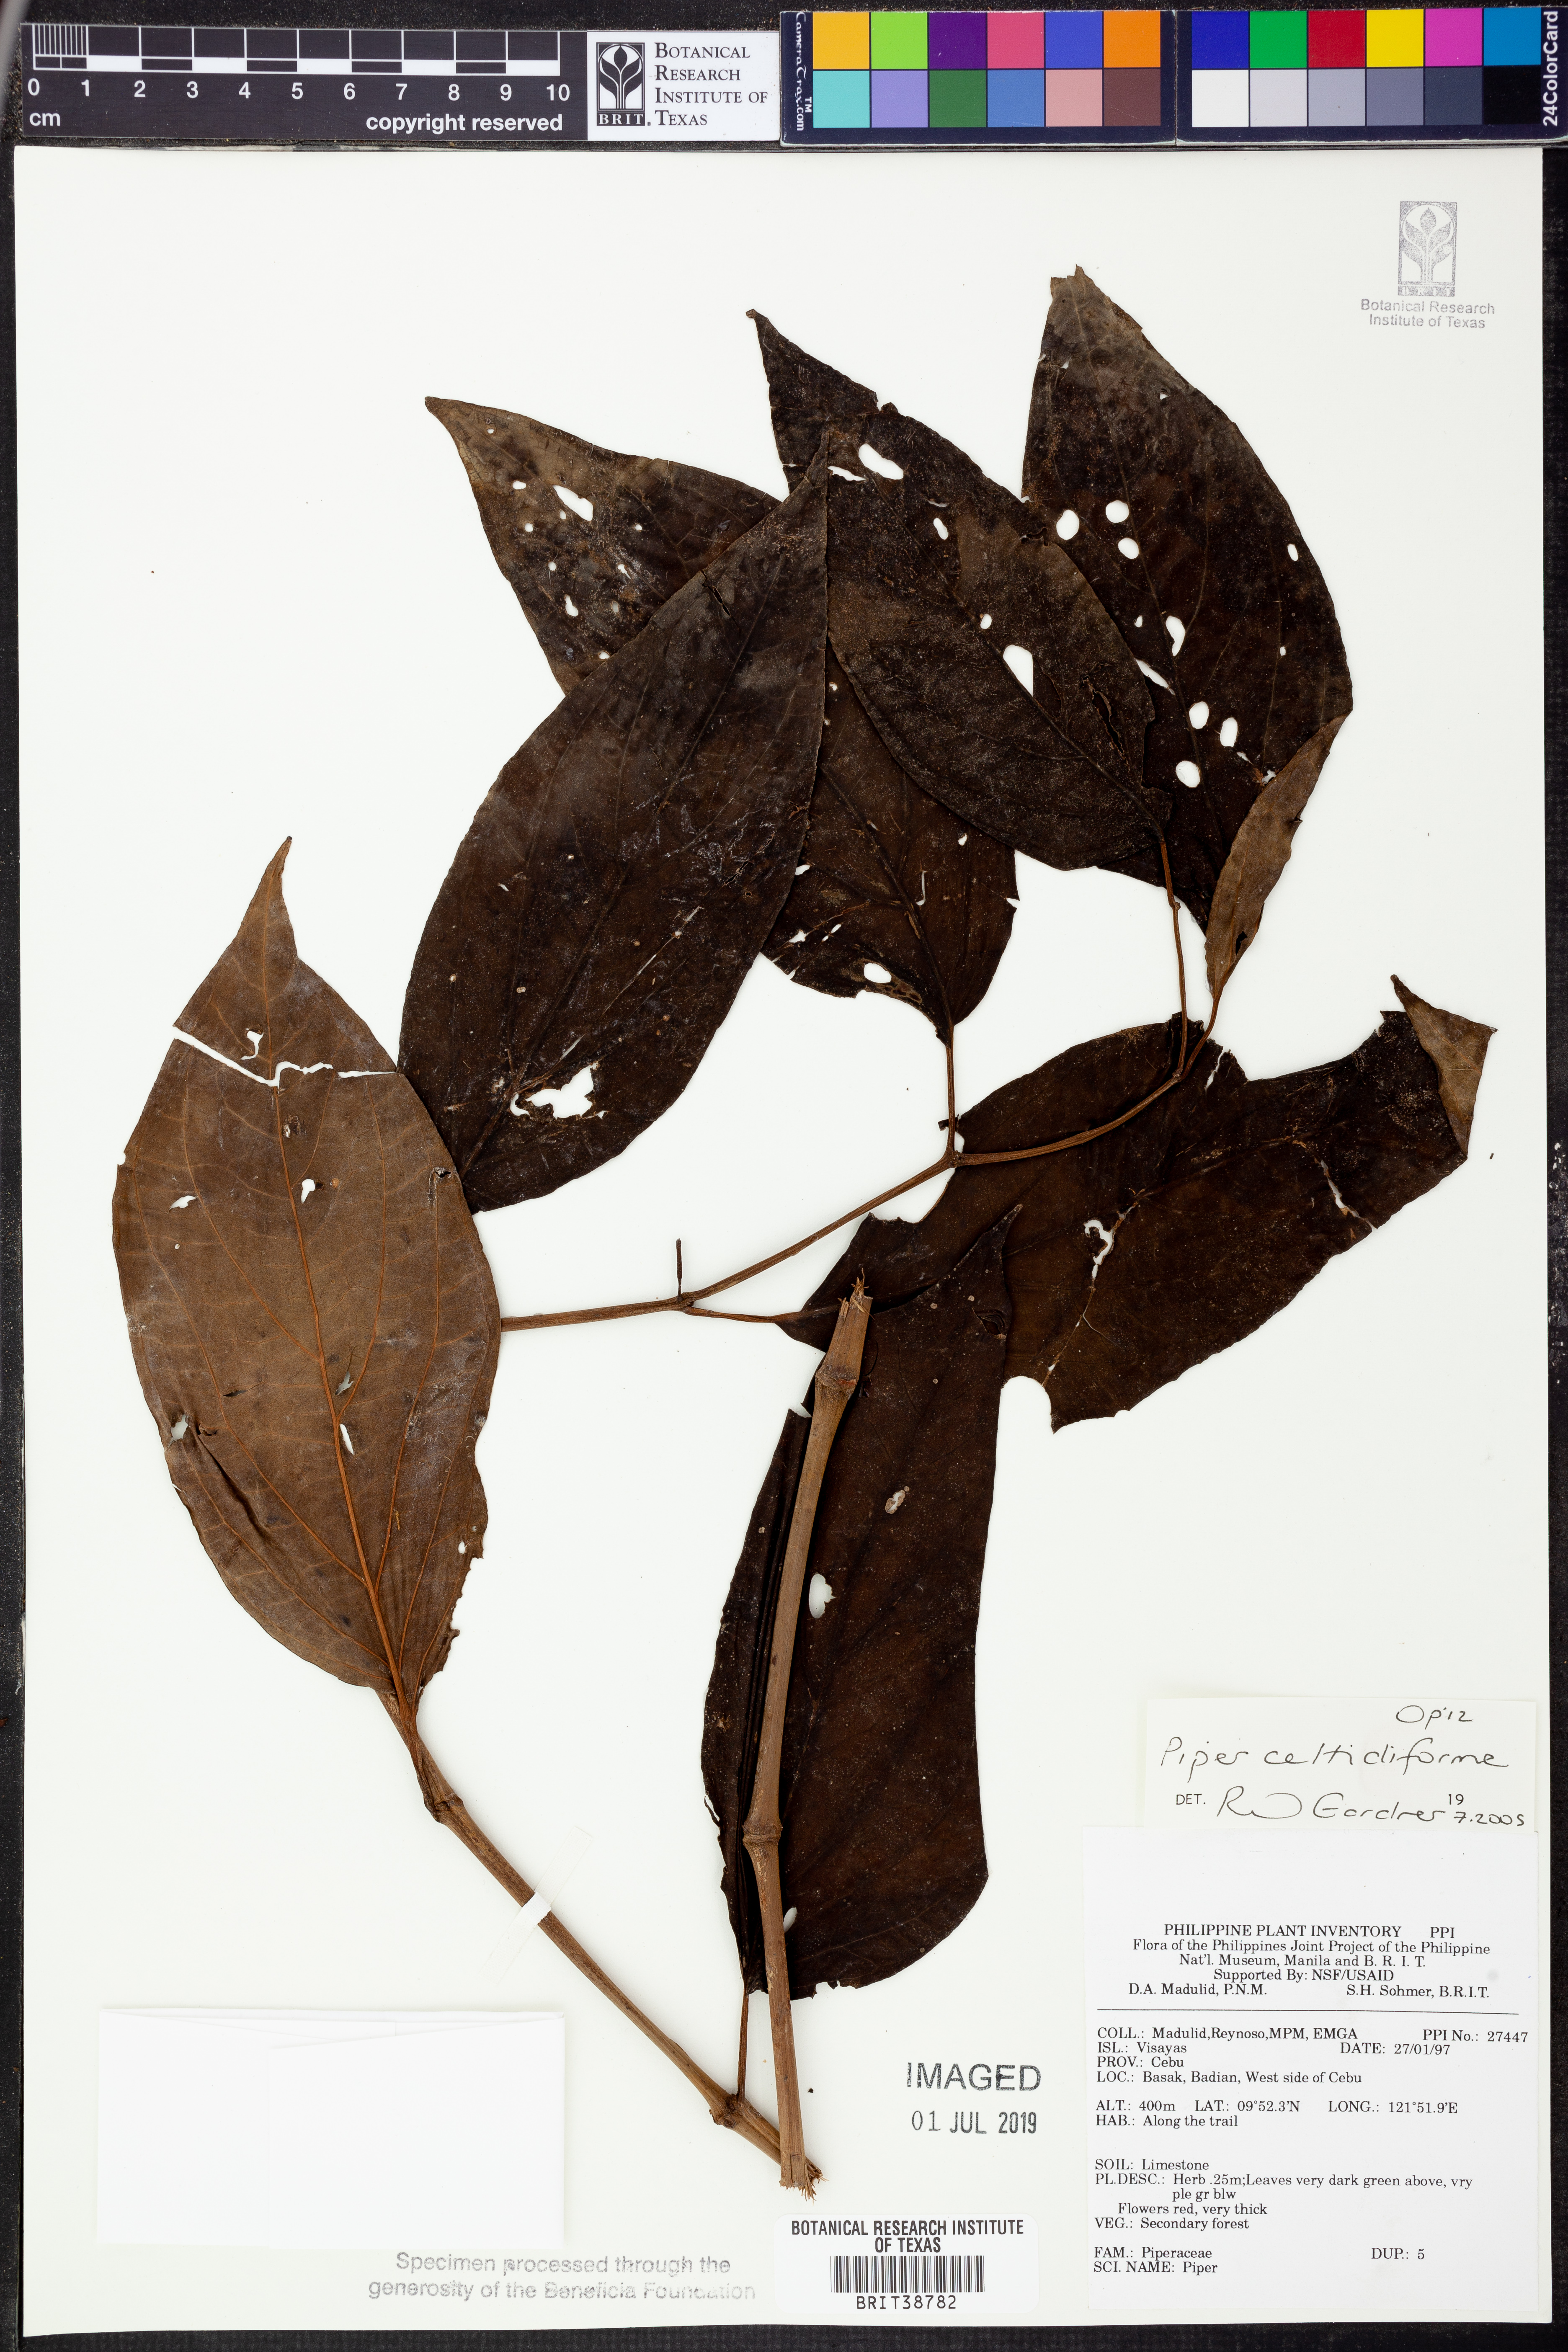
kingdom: Plantae
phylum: Tracheophyta
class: Magnoliopsida
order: Piperales
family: Piperaceae
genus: Piper
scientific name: Piper celtidiforme
